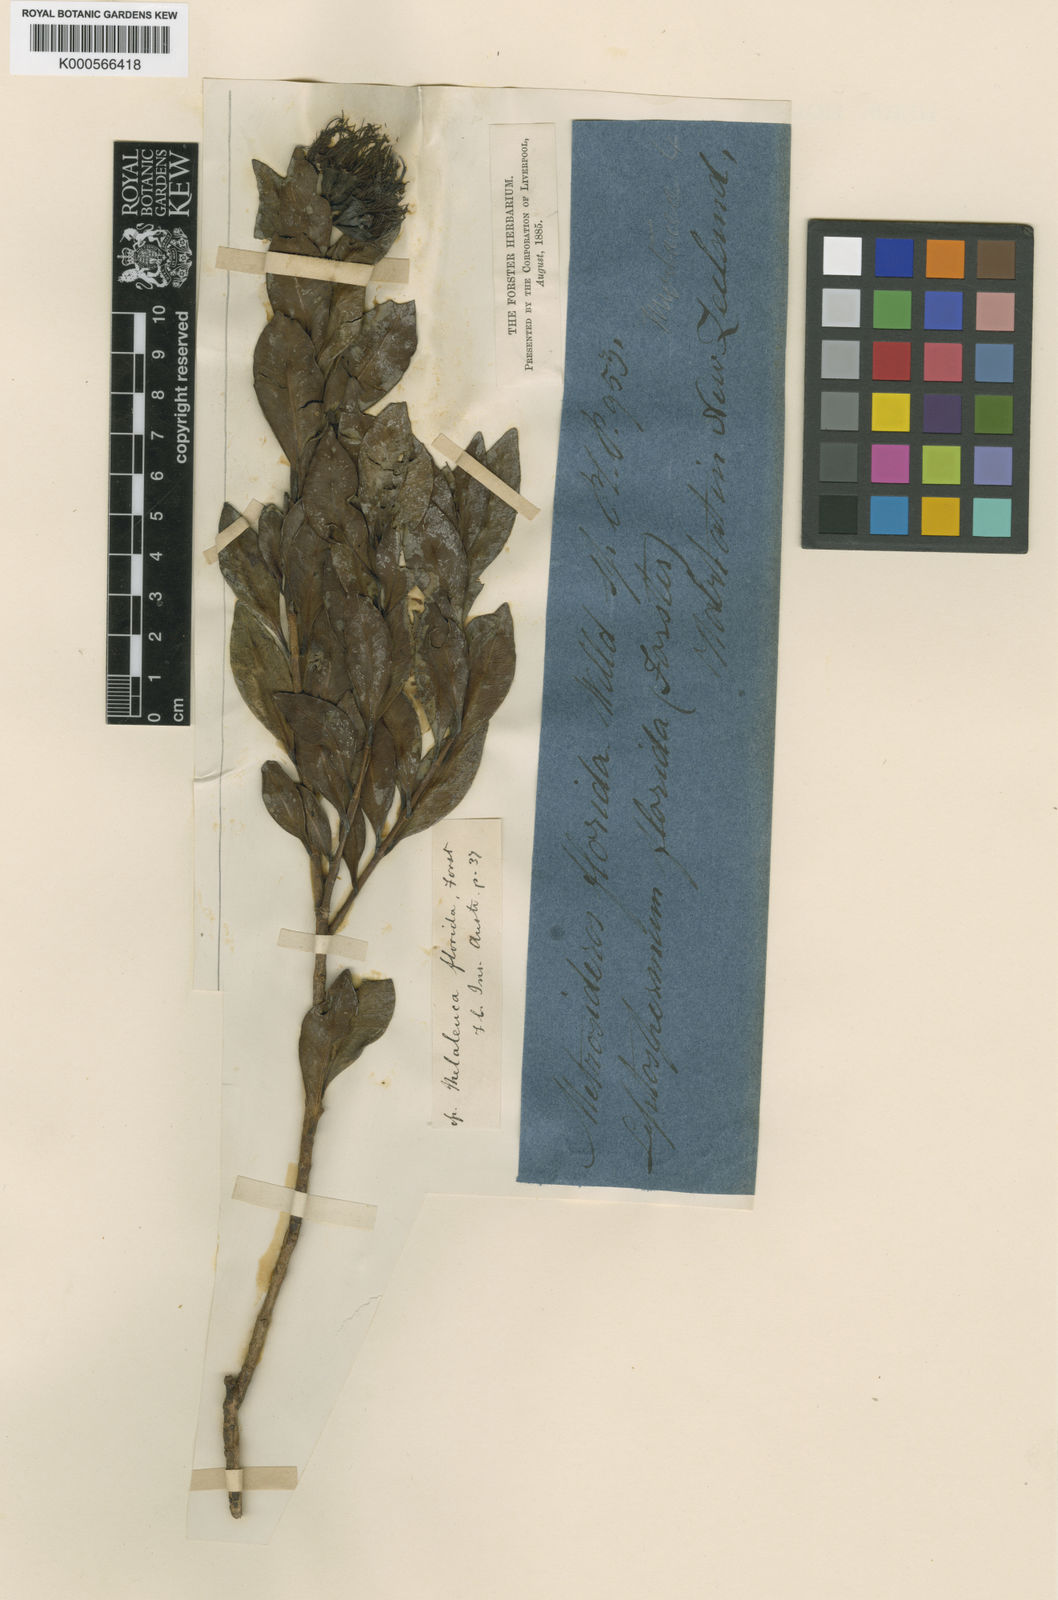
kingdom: Plantae
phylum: Tracheophyta
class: Magnoliopsida
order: Myrtales
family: Myrtaceae
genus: Metrosideros
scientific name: Metrosideros fulgens
